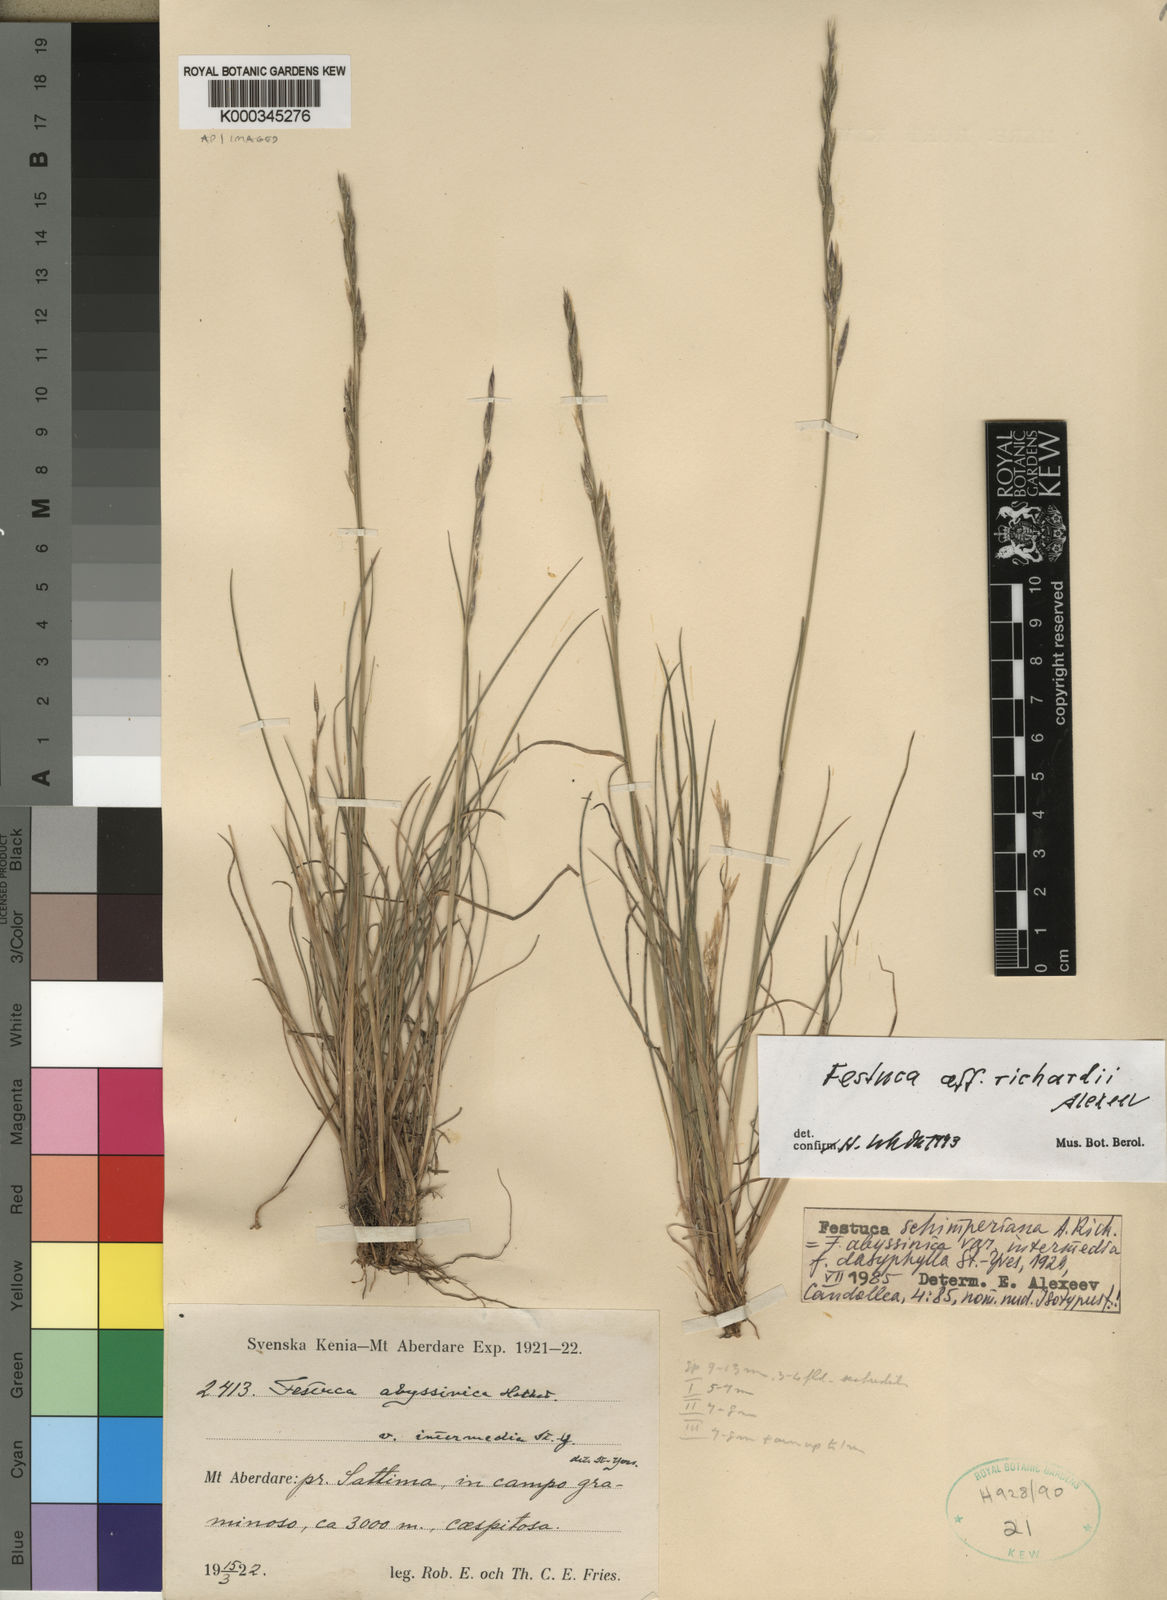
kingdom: Plantae
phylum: Tracheophyta
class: Liliopsida
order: Poales
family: Poaceae
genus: Festuca
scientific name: Festuca abyssinica
